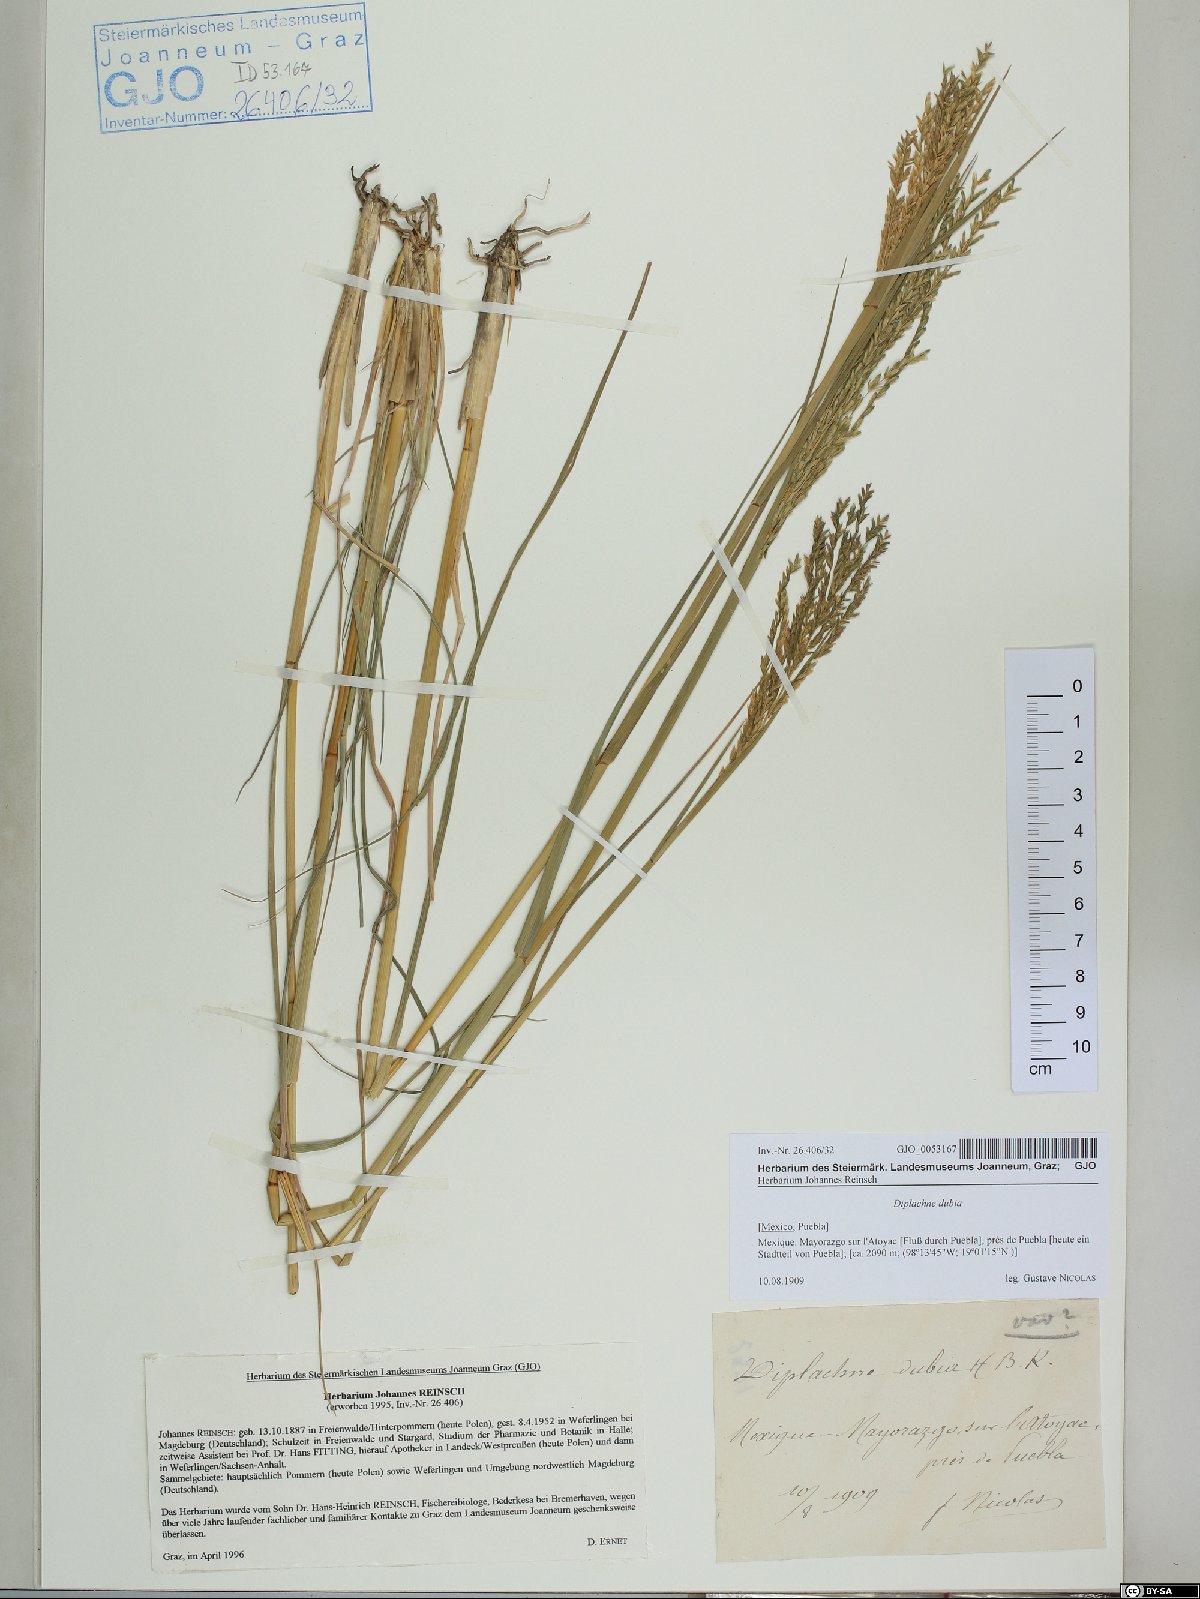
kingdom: Plantae
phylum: Tracheophyta
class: Liliopsida
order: Poales
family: Poaceae
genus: Disakisperma
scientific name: Disakisperma dubium
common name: Green sprangletop
